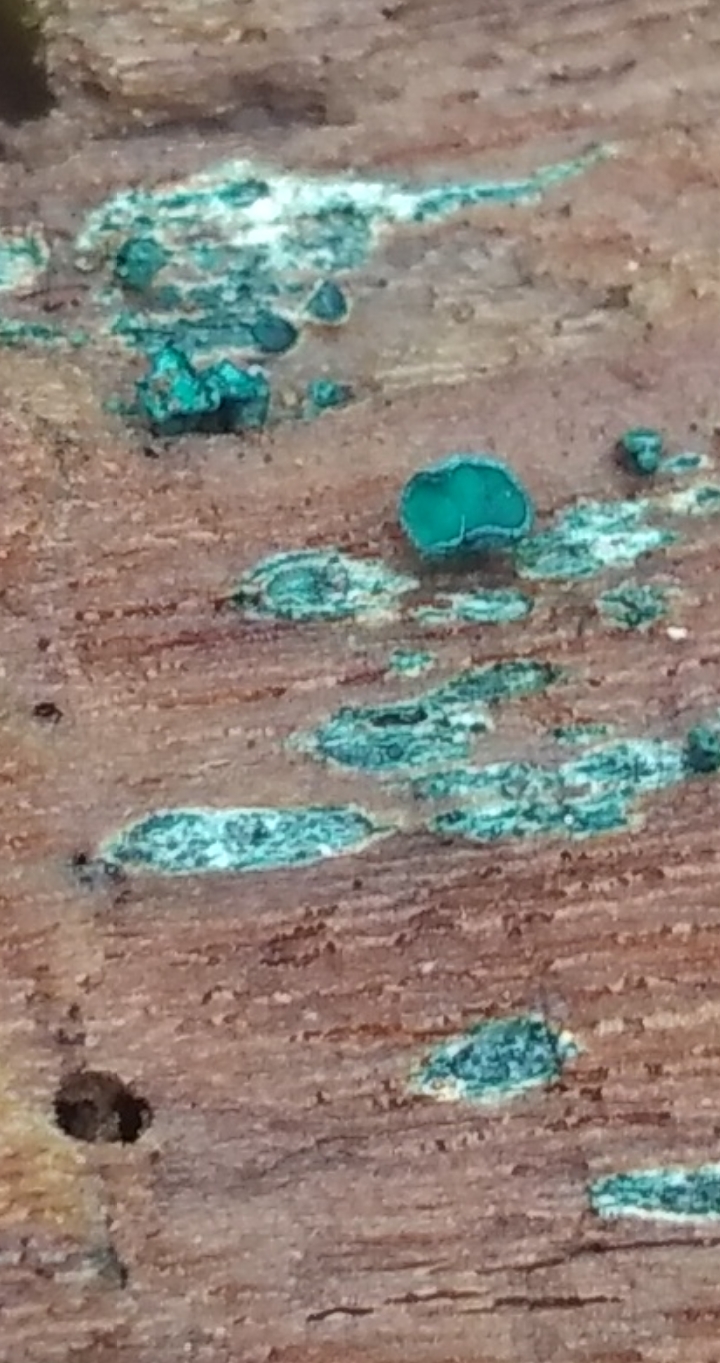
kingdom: Fungi
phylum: Ascomycota
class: Leotiomycetes
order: Helotiales
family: Chlorociboriaceae
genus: Chlorociboria
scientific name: Chlorociboria aeruginascens
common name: almindelig grønskive
